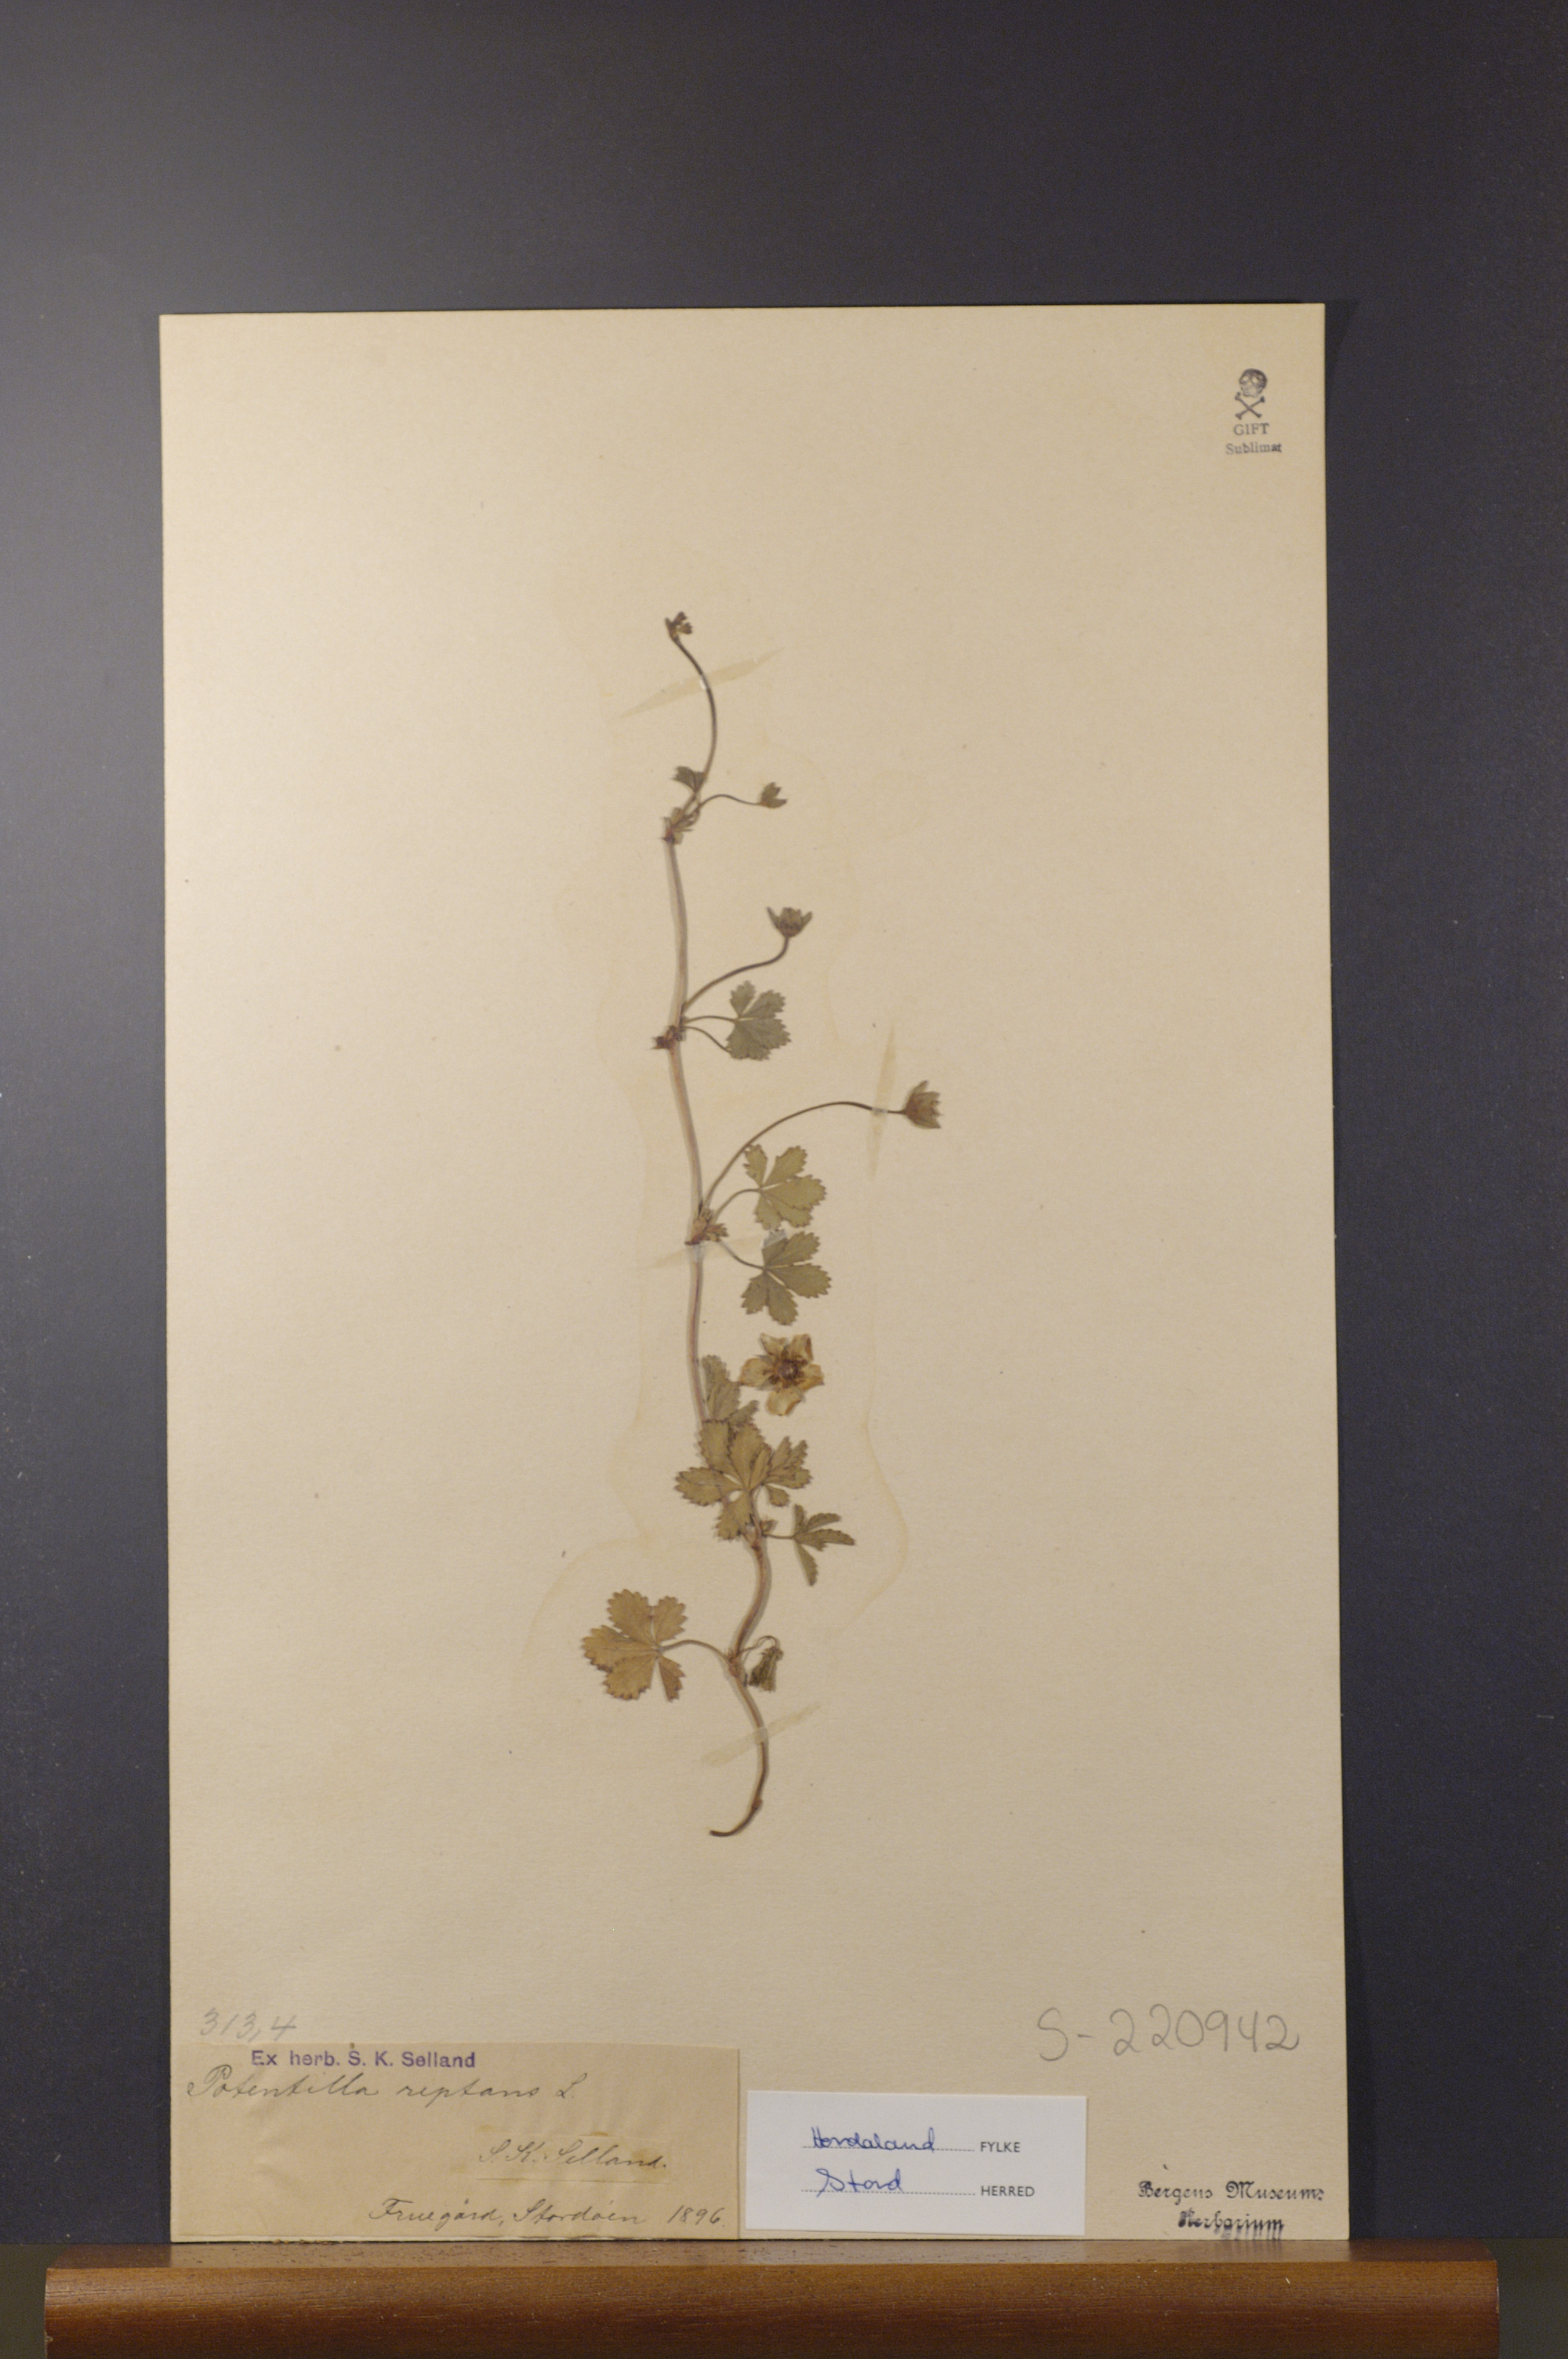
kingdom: Plantae
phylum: Tracheophyta
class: Magnoliopsida
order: Rosales
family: Rosaceae
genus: Potentilla
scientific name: Potentilla reptans
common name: Creeping cinquefoil
